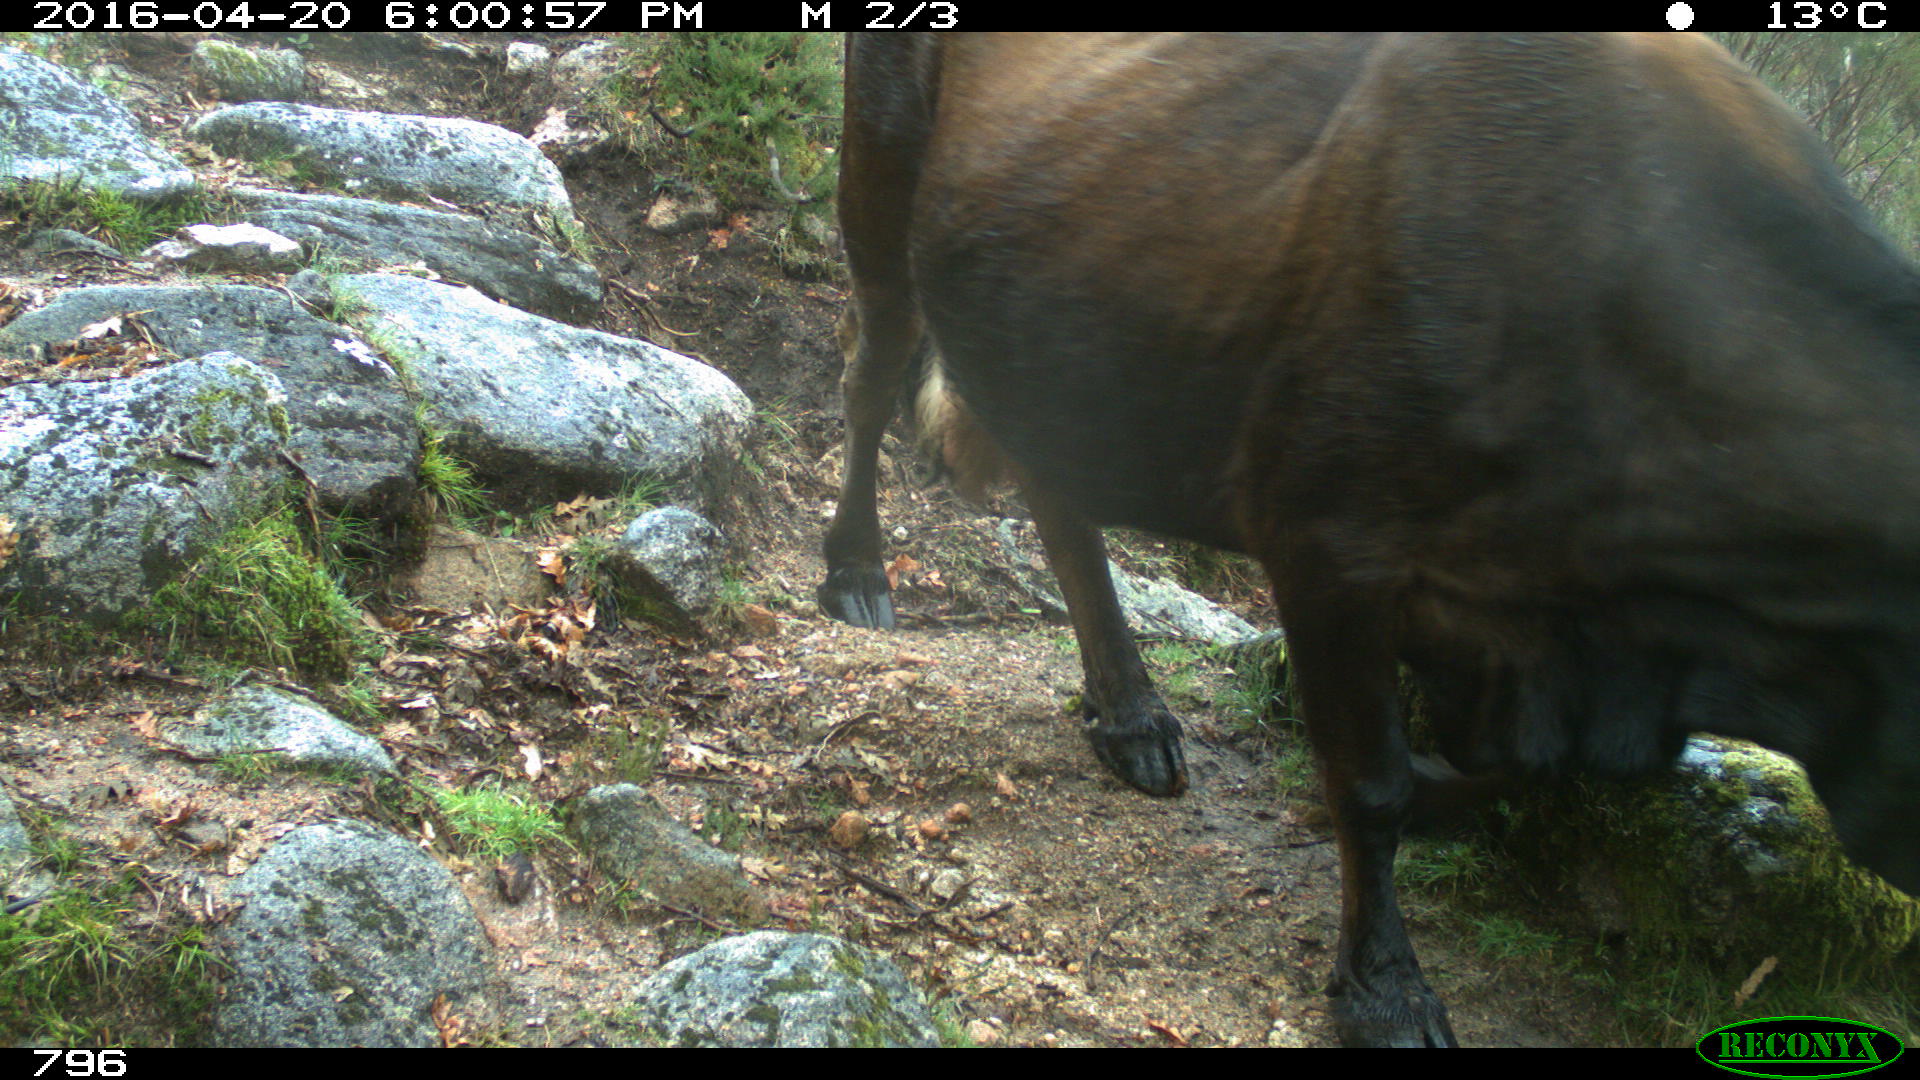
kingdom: Animalia
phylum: Chordata
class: Mammalia
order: Artiodactyla
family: Bovidae
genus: Bos
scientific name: Bos taurus
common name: Domesticated cattle
